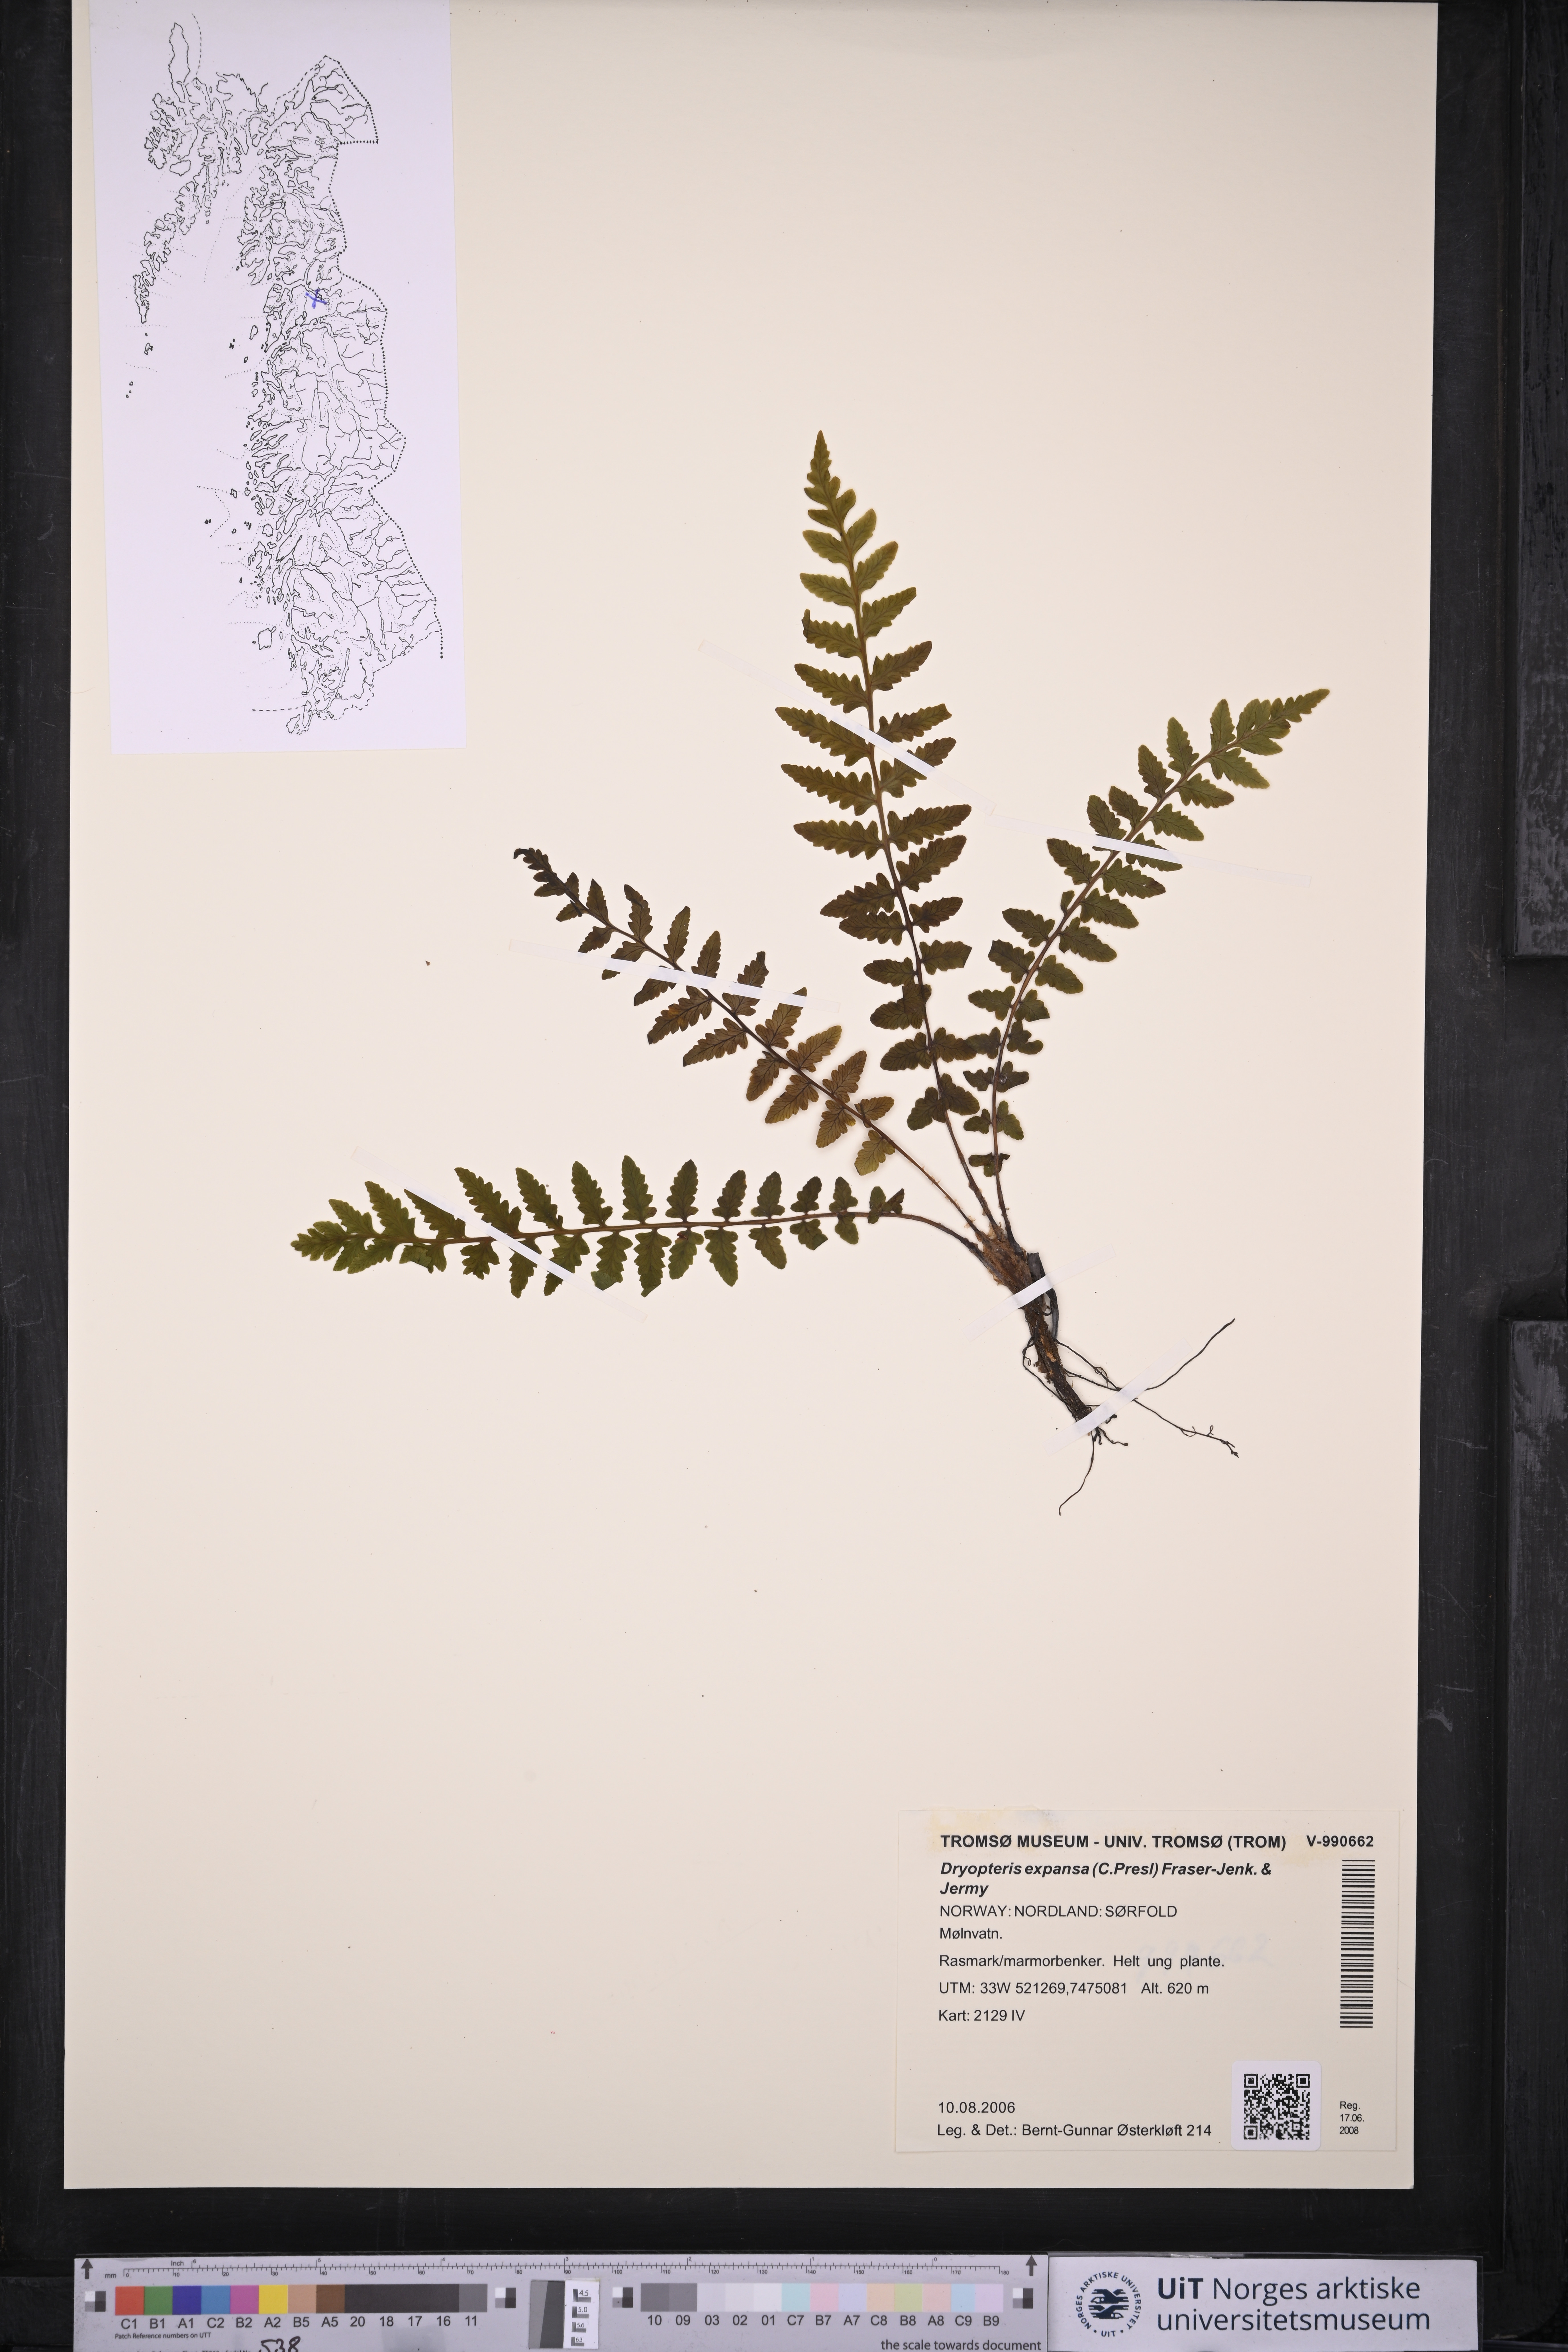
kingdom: Plantae
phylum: Tracheophyta
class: Polypodiopsida
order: Polypodiales
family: Dryopteridaceae
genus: Dryopteris
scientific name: Dryopteris expansa
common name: Northern buckler fern
